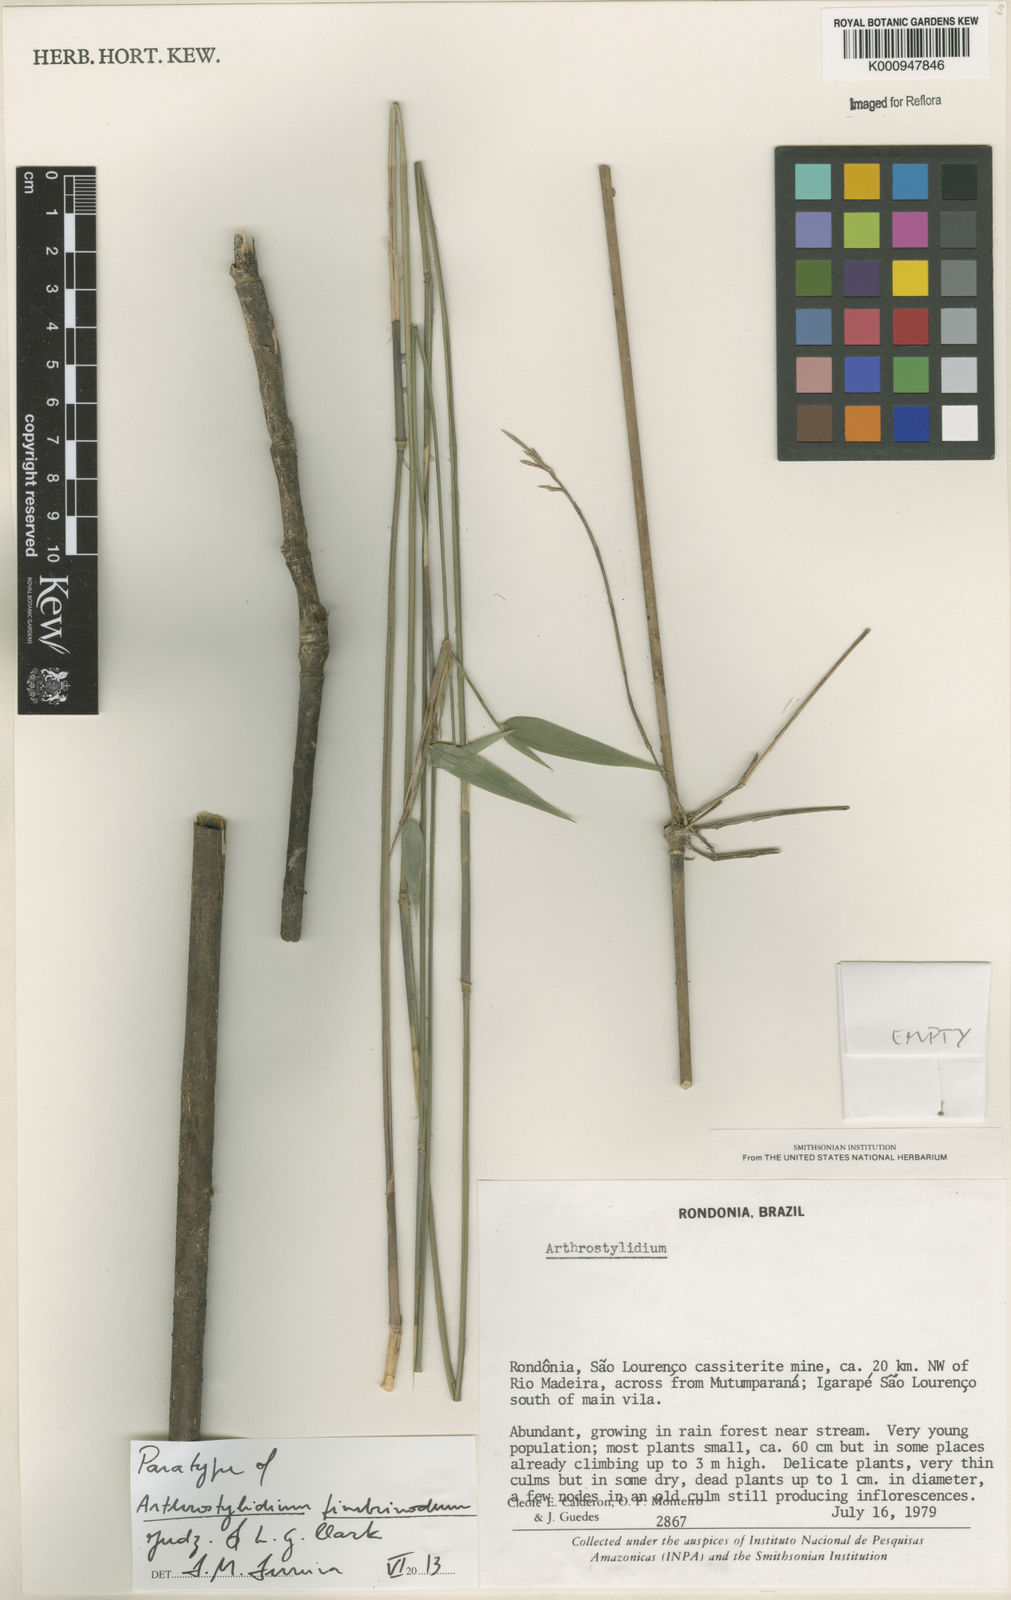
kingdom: Plantae
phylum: Tracheophyta
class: Liliopsida
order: Poales
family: Poaceae
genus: Arthrostylidium
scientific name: Arthrostylidium fimbrinodum
